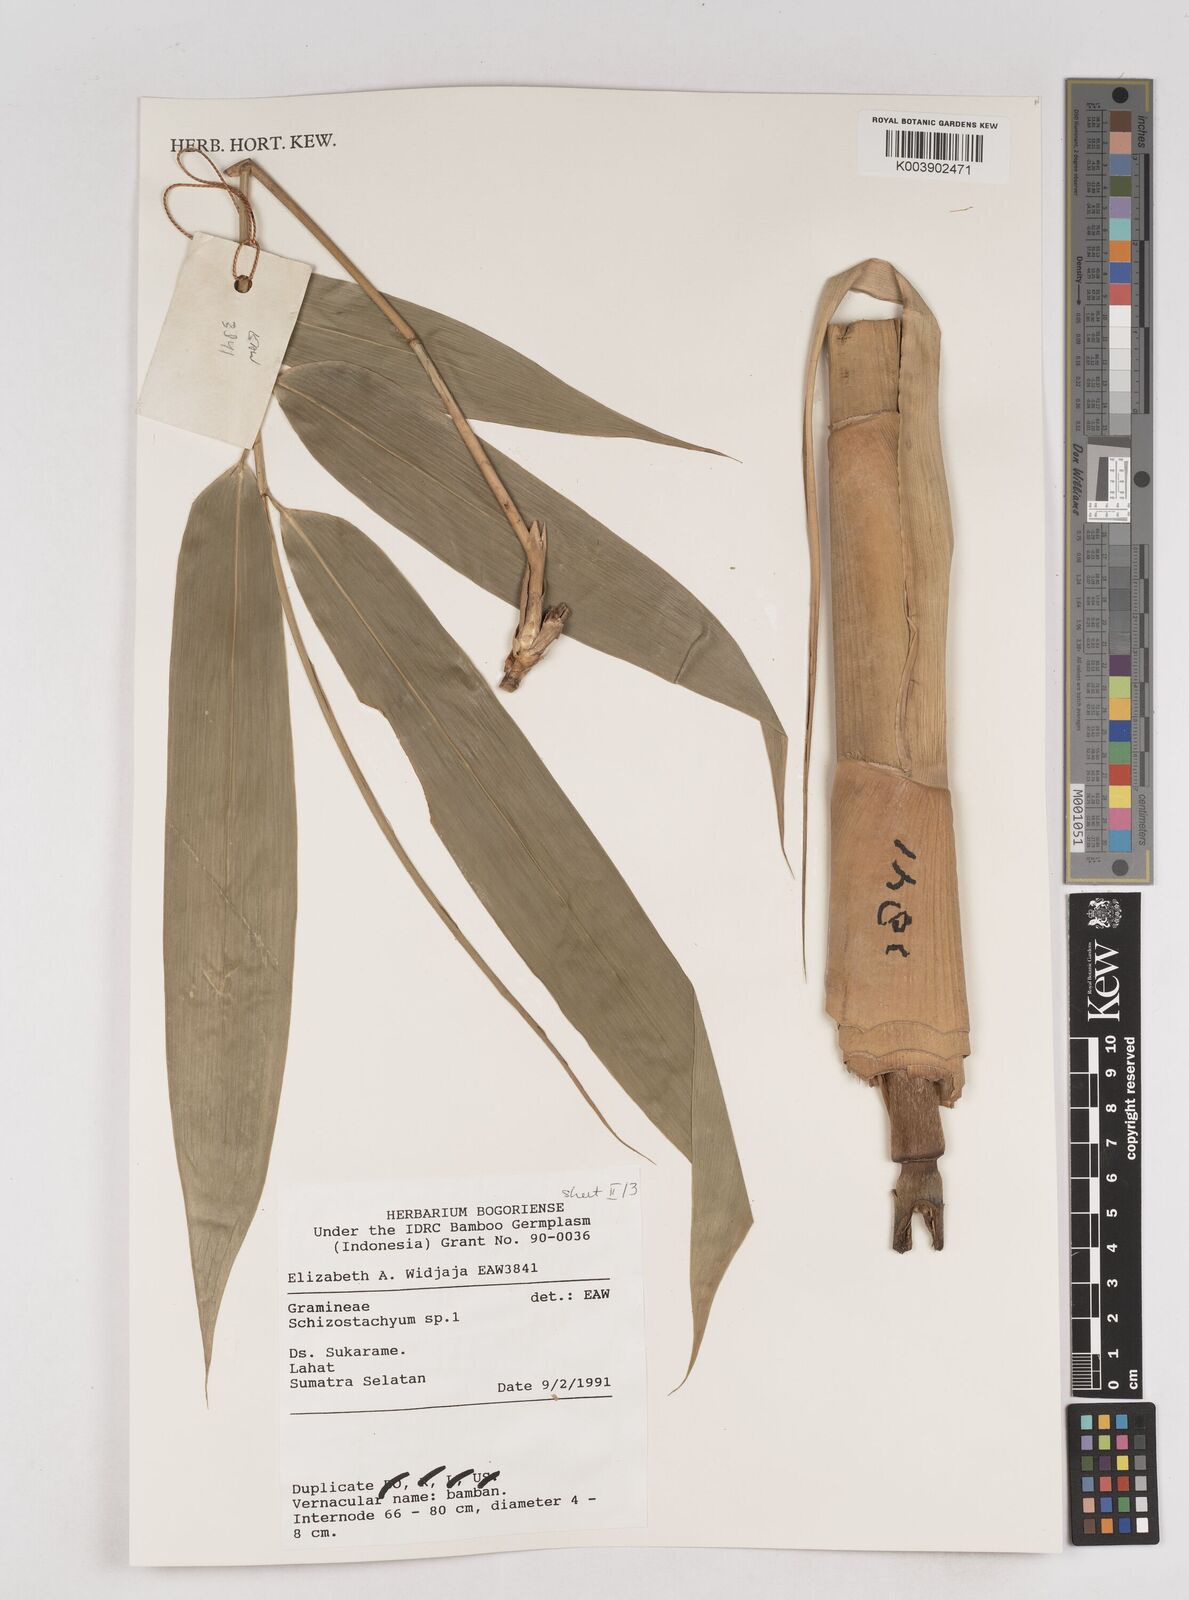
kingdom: Plantae
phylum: Tracheophyta
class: Liliopsida
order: Poales
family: Poaceae
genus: Schizostachyum
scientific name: Schizostachyum
